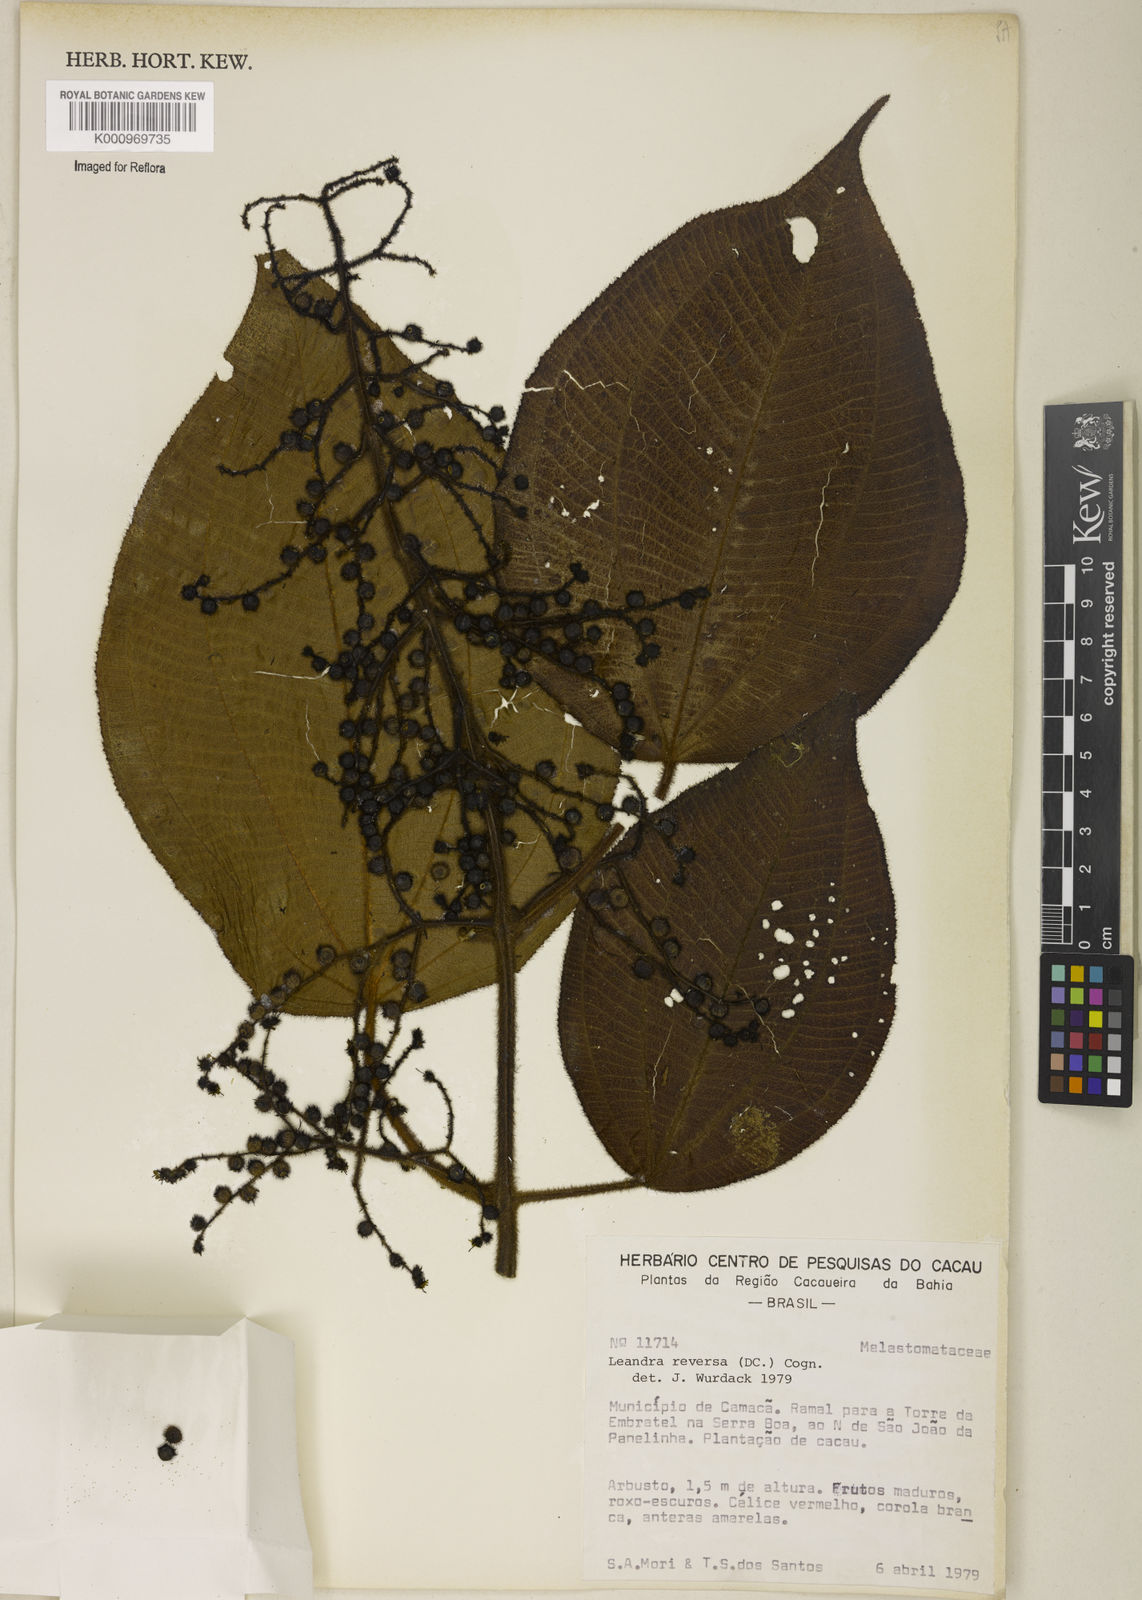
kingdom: Plantae
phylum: Tracheophyta
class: Magnoliopsida
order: Myrtales
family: Melastomataceae
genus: Miconia
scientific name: Miconia reversa
